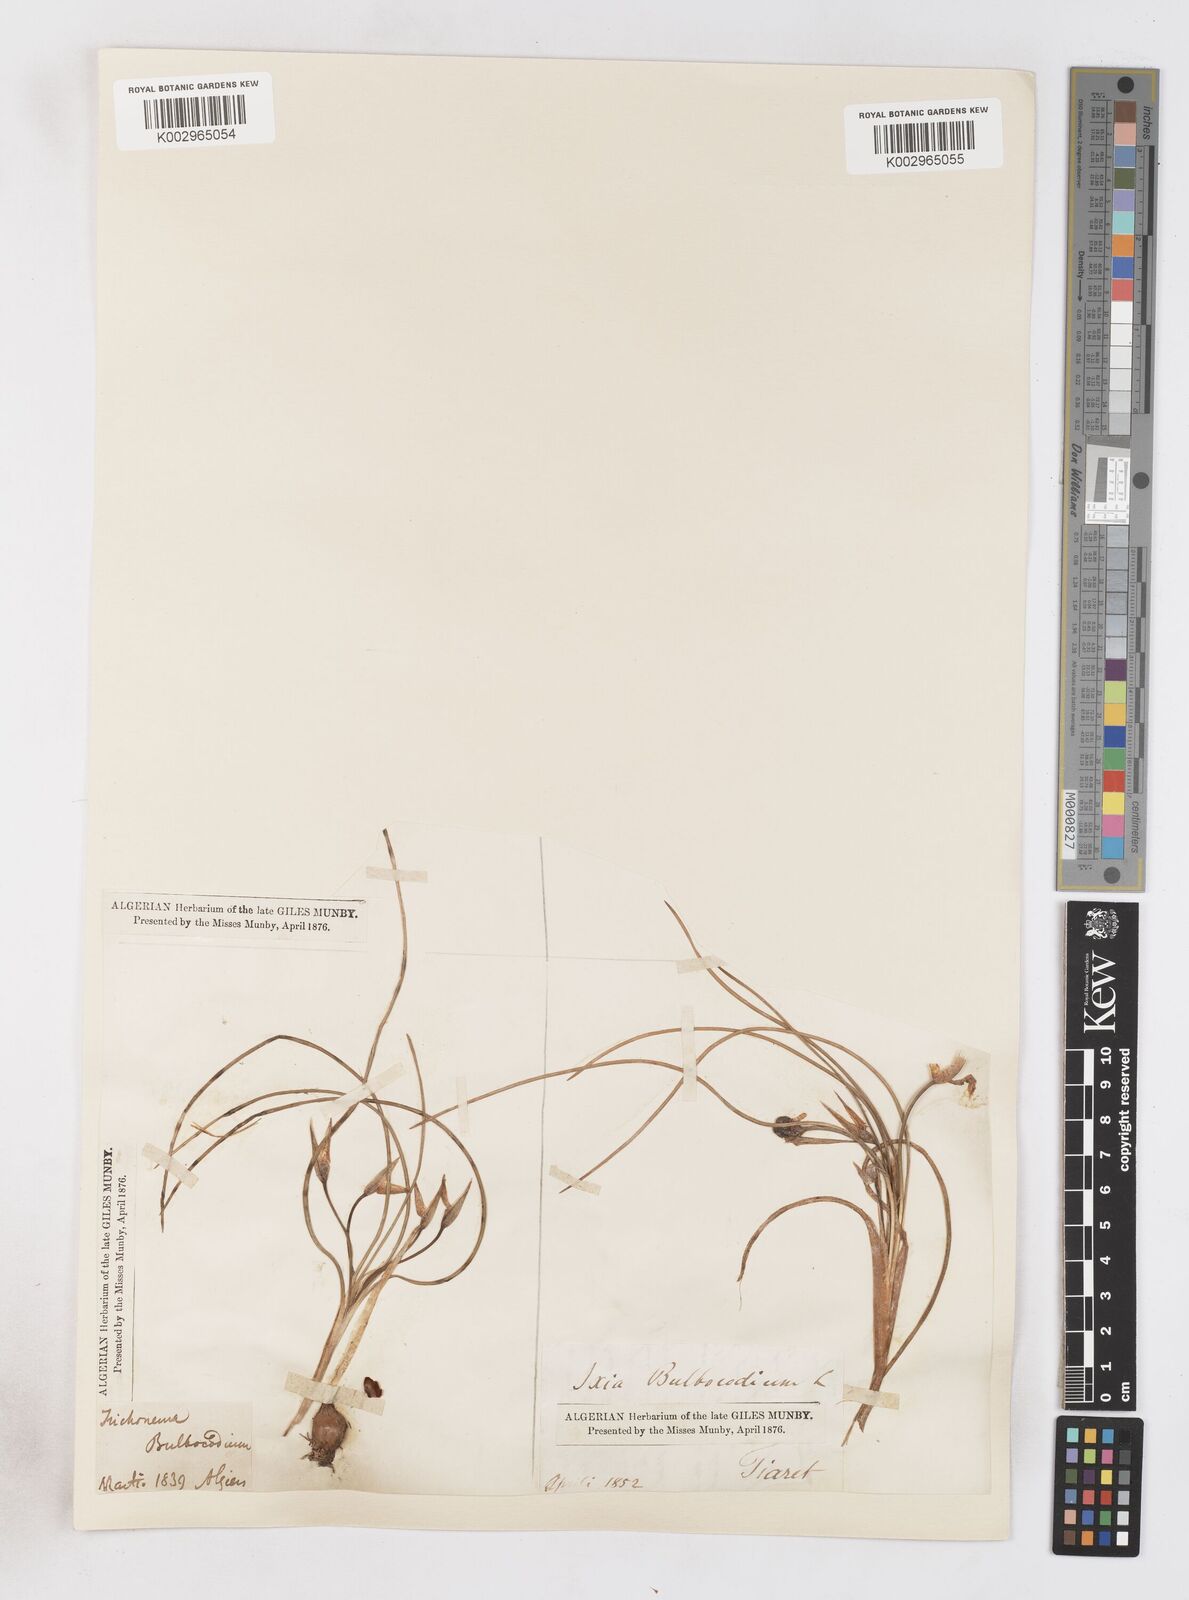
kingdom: Plantae
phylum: Tracheophyta
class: Liliopsida
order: Asparagales
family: Iridaceae
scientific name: Iridaceae
